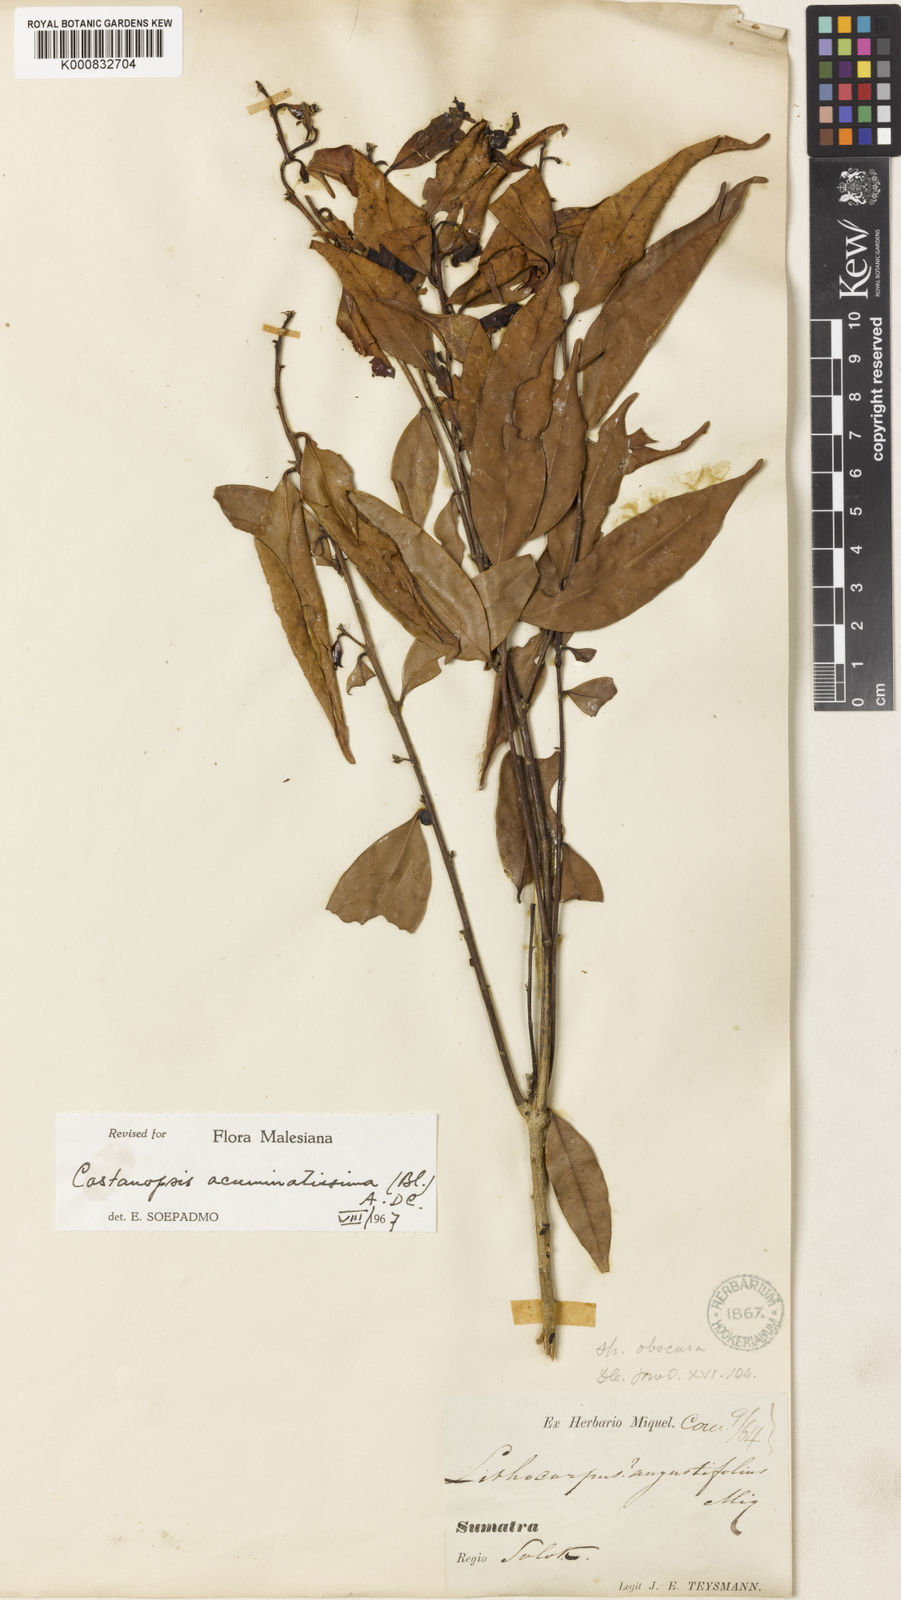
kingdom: Plantae
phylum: Tracheophyta
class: Magnoliopsida
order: Fagales
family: Fagaceae
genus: Castanopsis
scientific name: Castanopsis acuminatissima
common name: Papua new guinea oak
